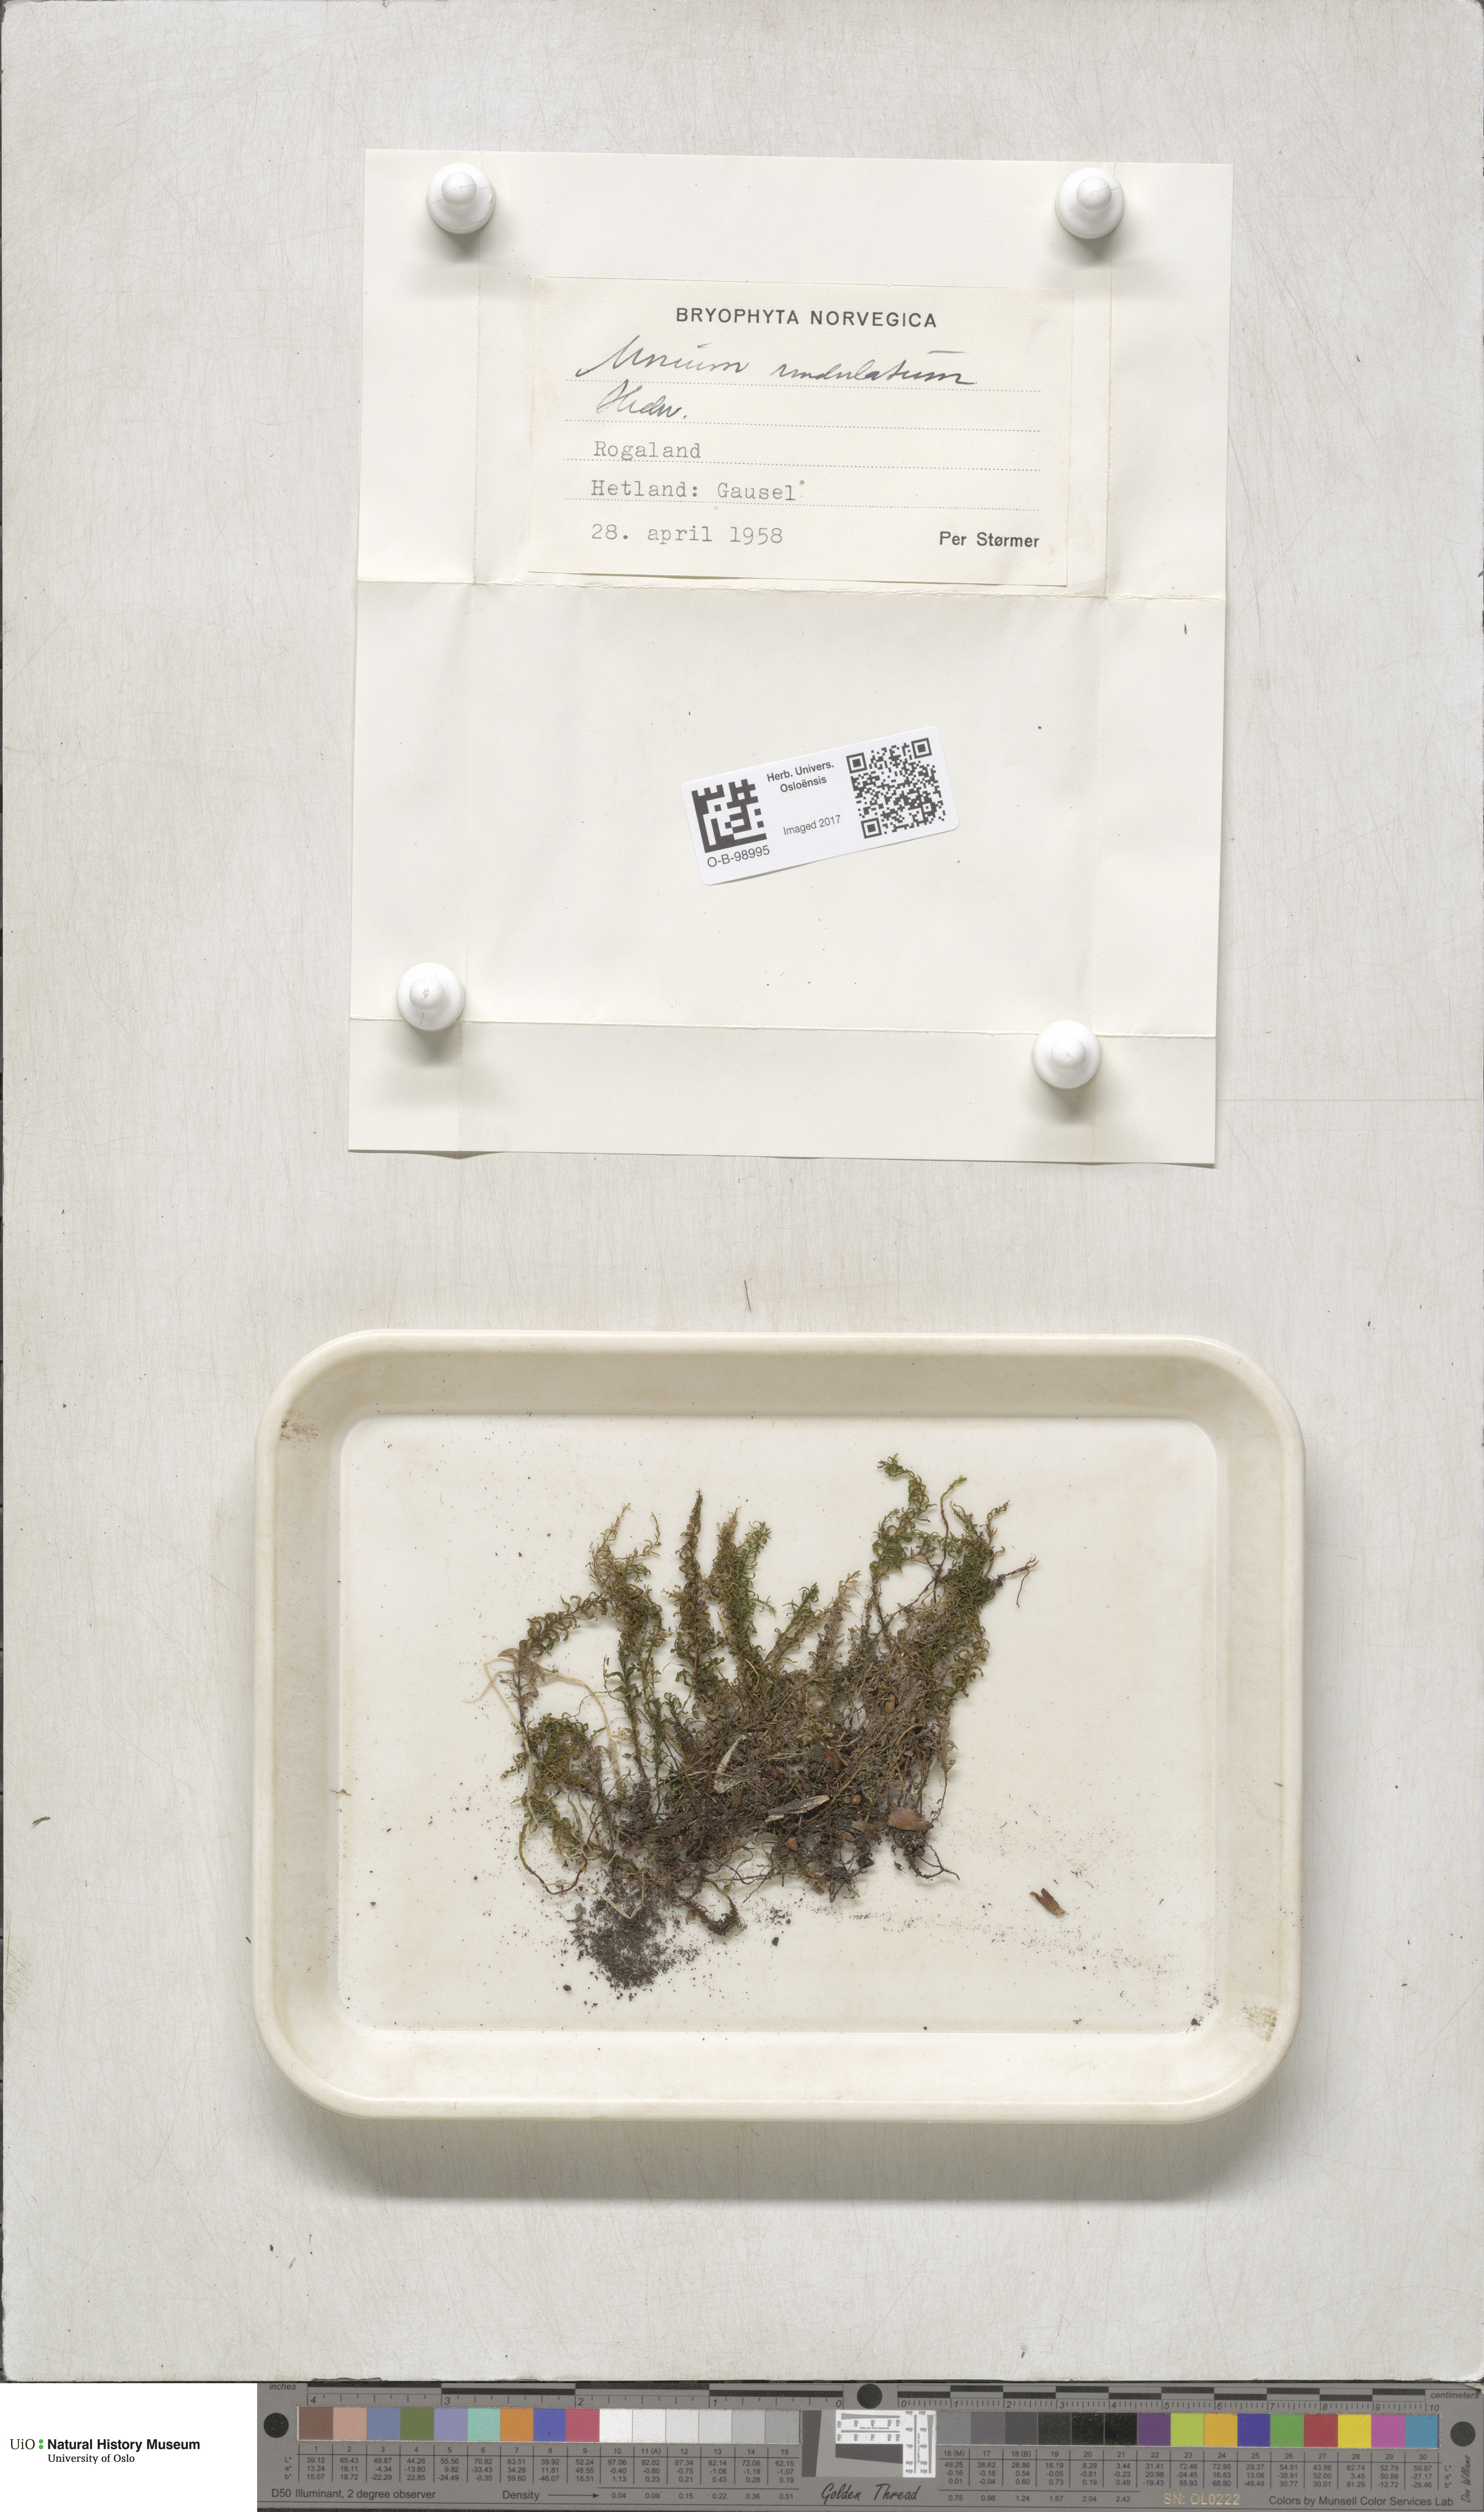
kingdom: Plantae
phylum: Bryophyta
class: Bryopsida
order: Bryales
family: Mniaceae
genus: Plagiomnium
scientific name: Plagiomnium undulatum
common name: Hart's-tongue thyme-moss
